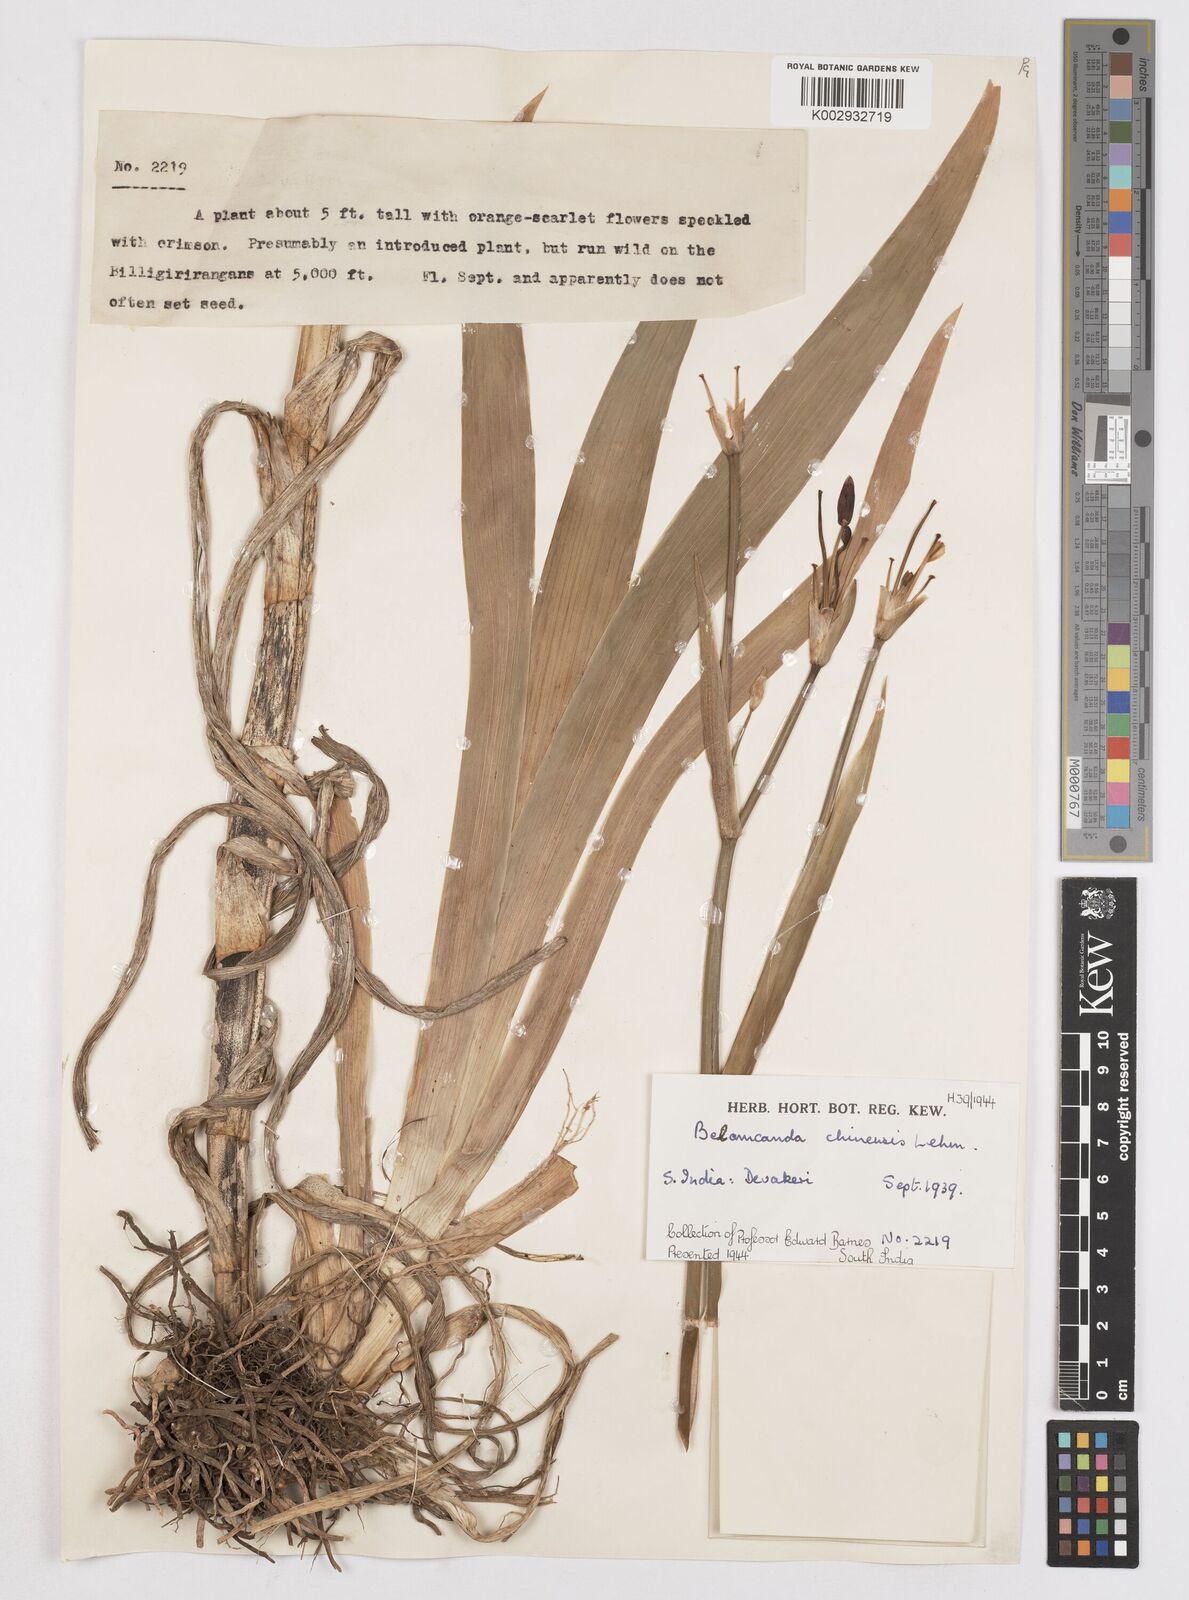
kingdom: Plantae
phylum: Tracheophyta
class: Liliopsida
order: Asparagales
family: Iridaceae
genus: Iris
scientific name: Iris
